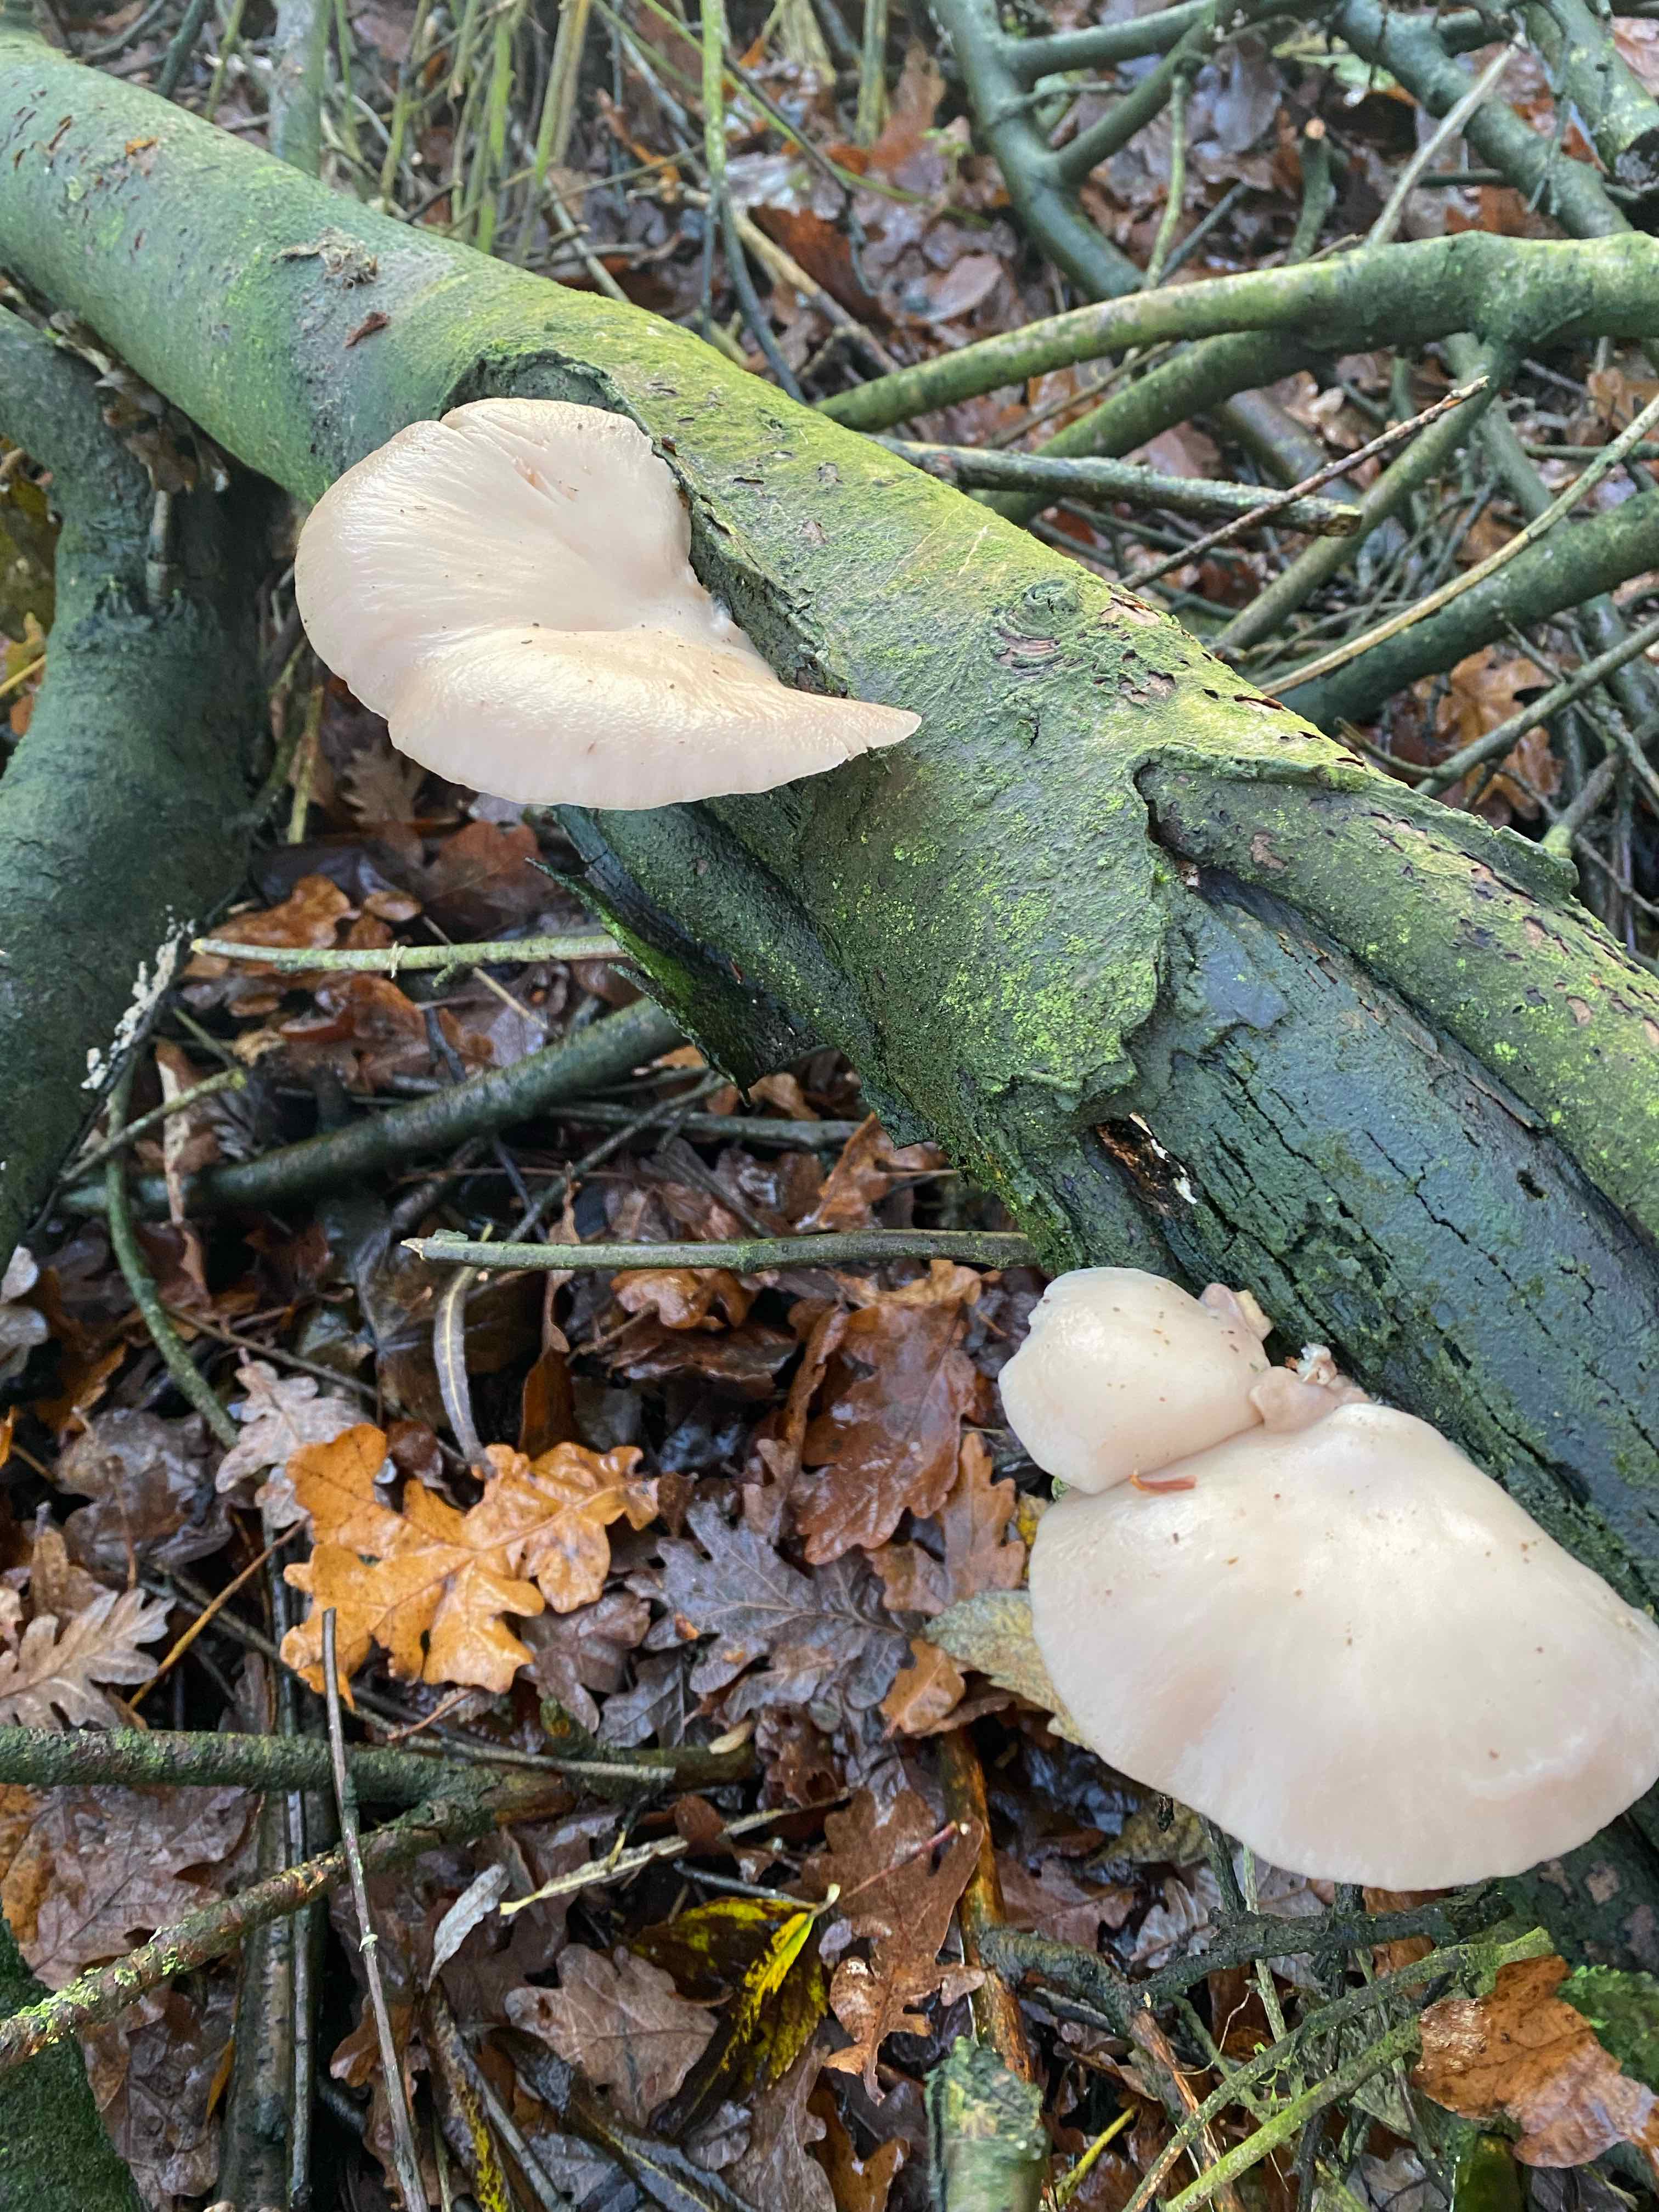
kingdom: Fungi
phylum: Basidiomycota
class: Agaricomycetes
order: Agaricales
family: Pleurotaceae
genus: Pleurotus
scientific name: Pleurotus pulmonarius
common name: sommer-østershat
